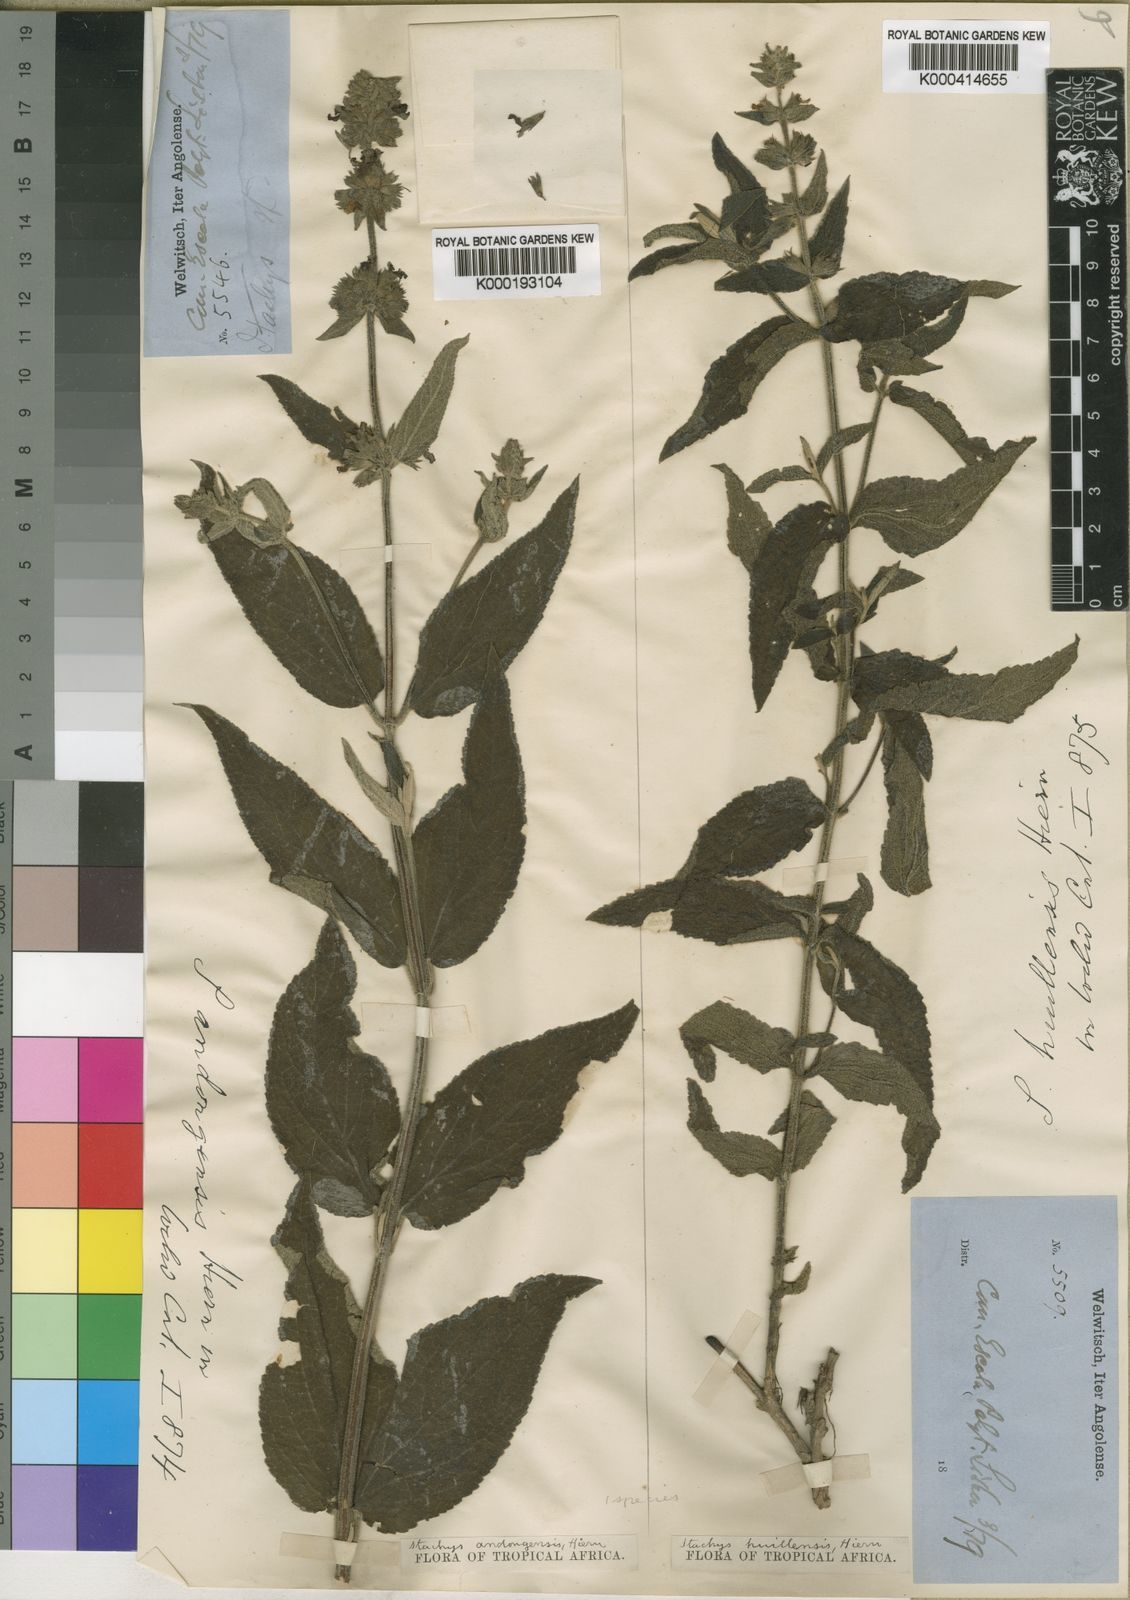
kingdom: Plantae
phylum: Tracheophyta
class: Magnoliopsida
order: Lamiales
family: Lamiaceae
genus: Stachys
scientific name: Stachys andongensis
